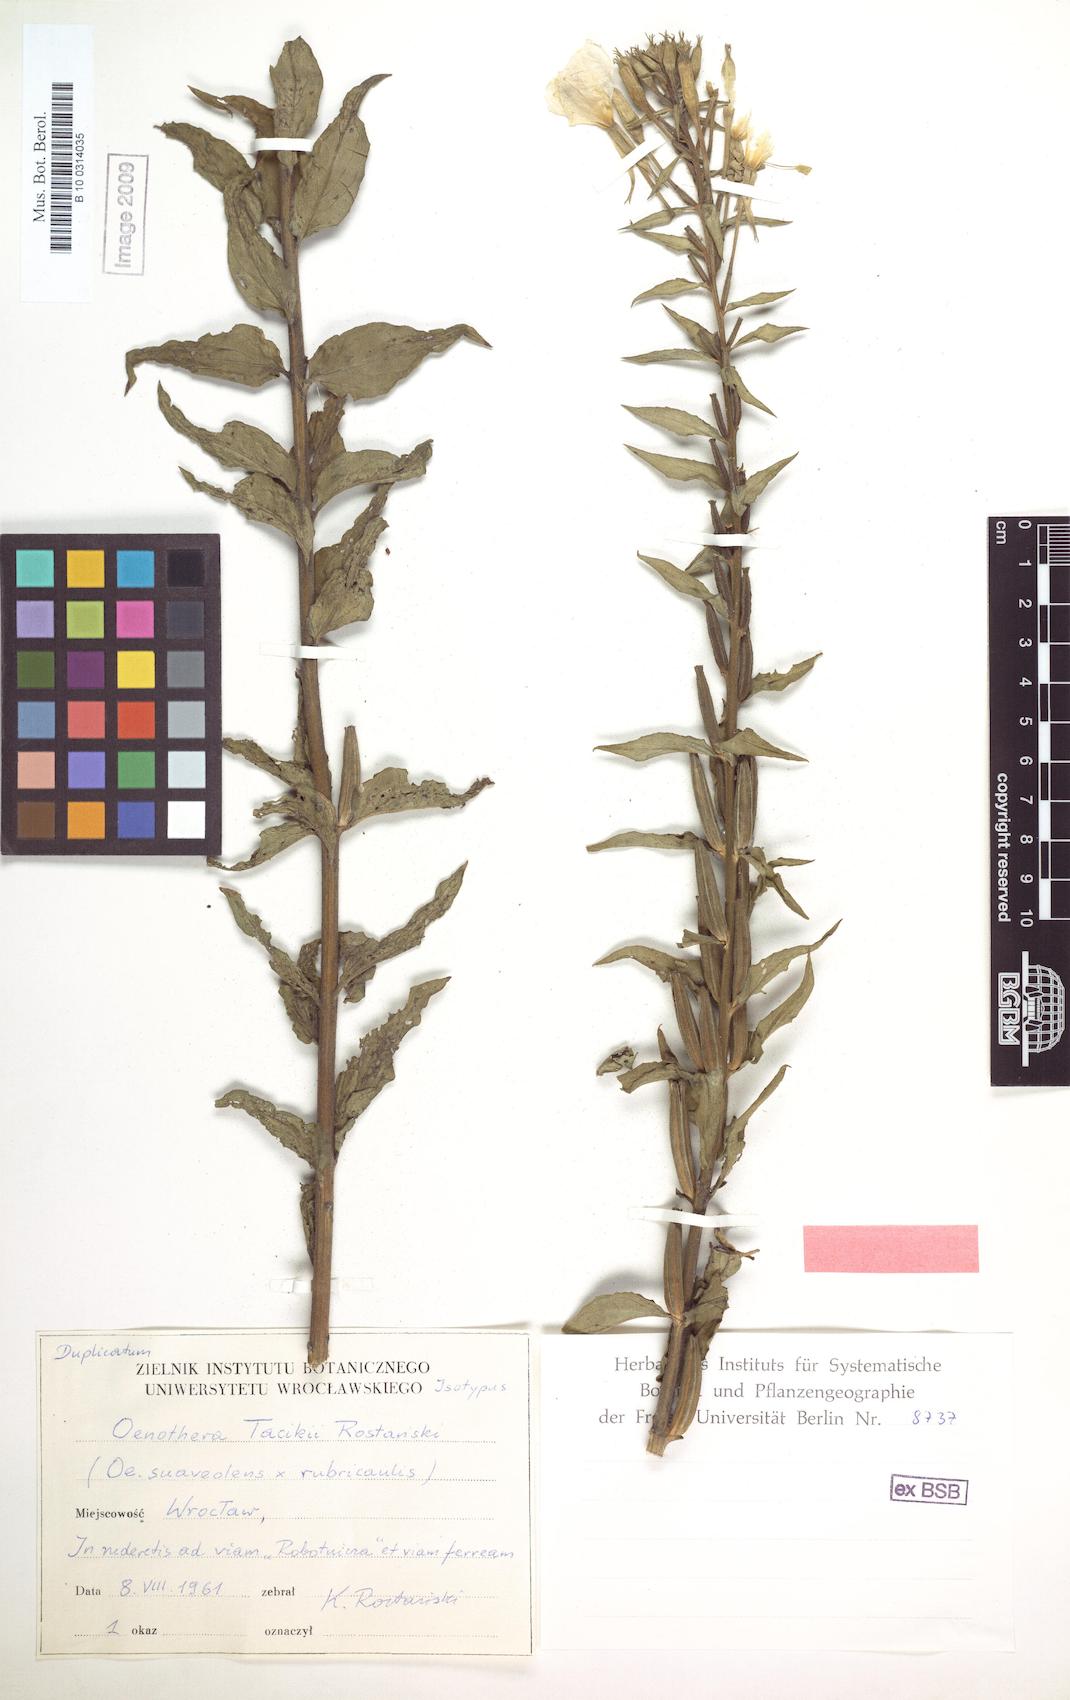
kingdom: Plantae
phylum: Tracheophyta
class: Magnoliopsida
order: Myrtales
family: Onagraceae
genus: Oenothera
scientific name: Oenothera tacikii
